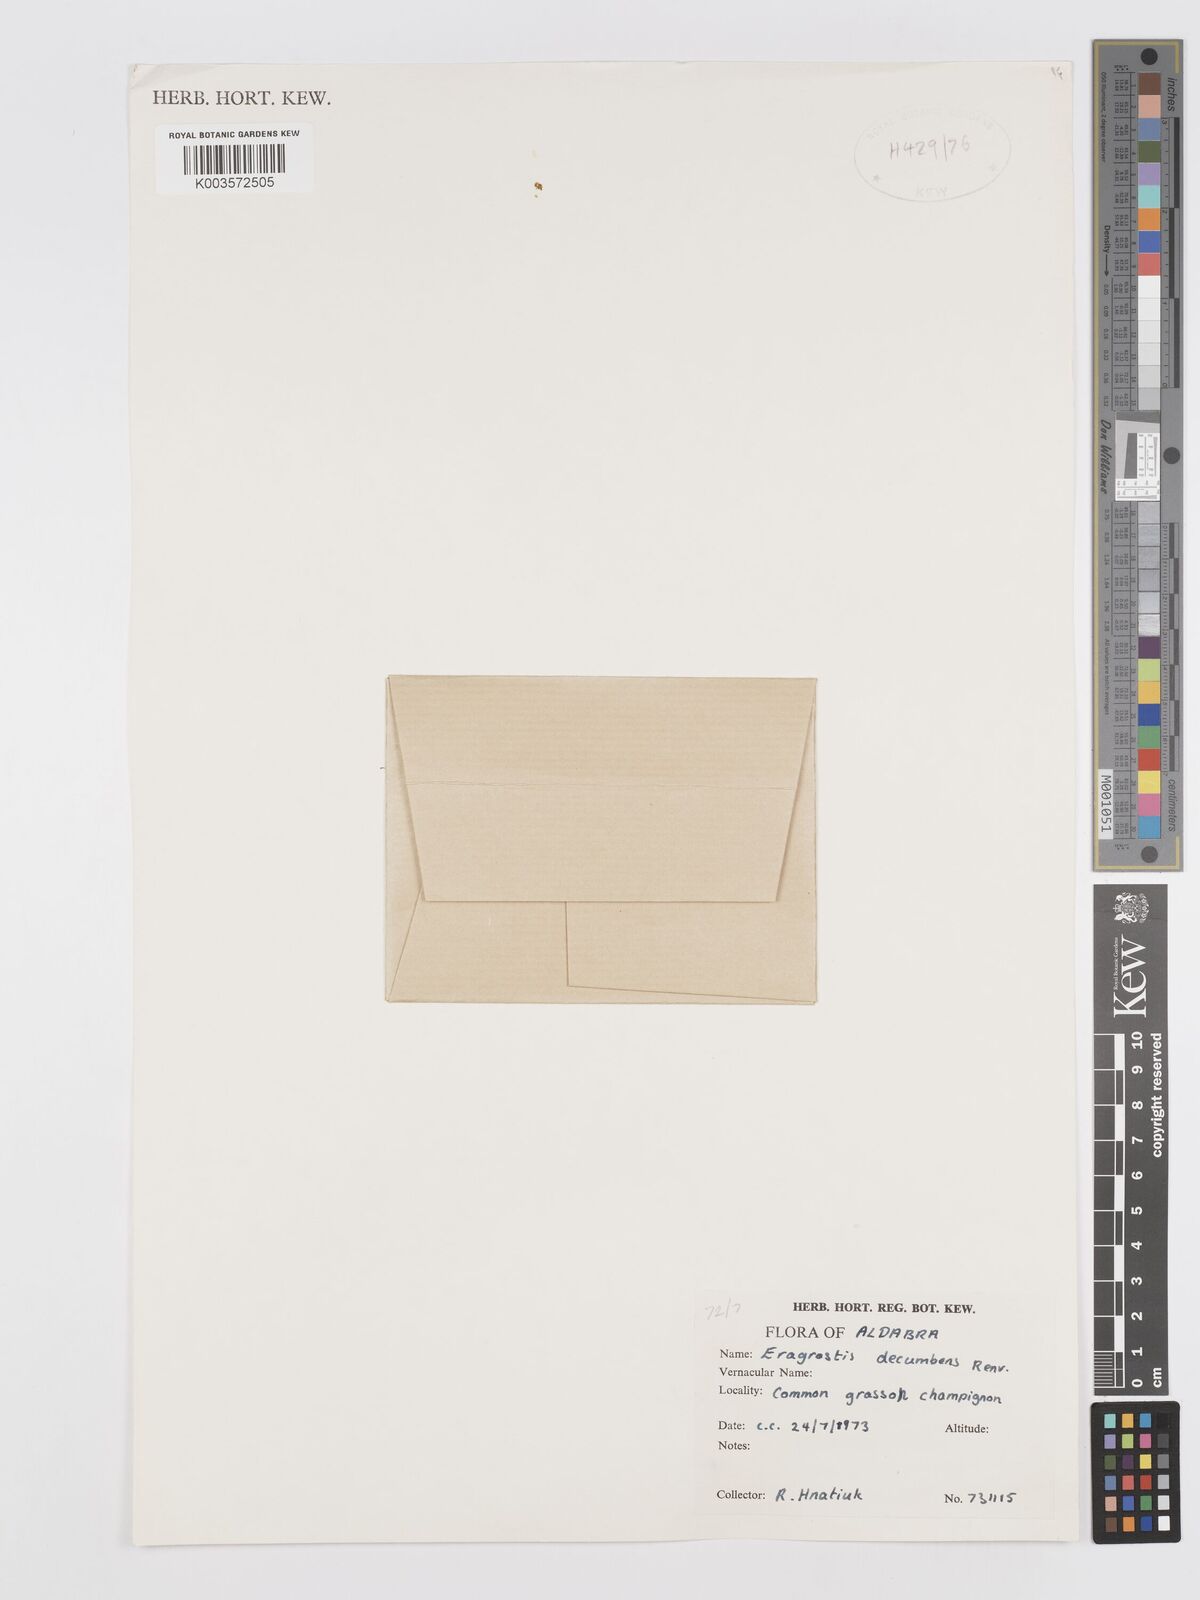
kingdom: Plantae
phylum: Tracheophyta
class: Liliopsida
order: Poales
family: Poaceae
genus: Eragrostis
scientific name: Eragrostis decumbens
